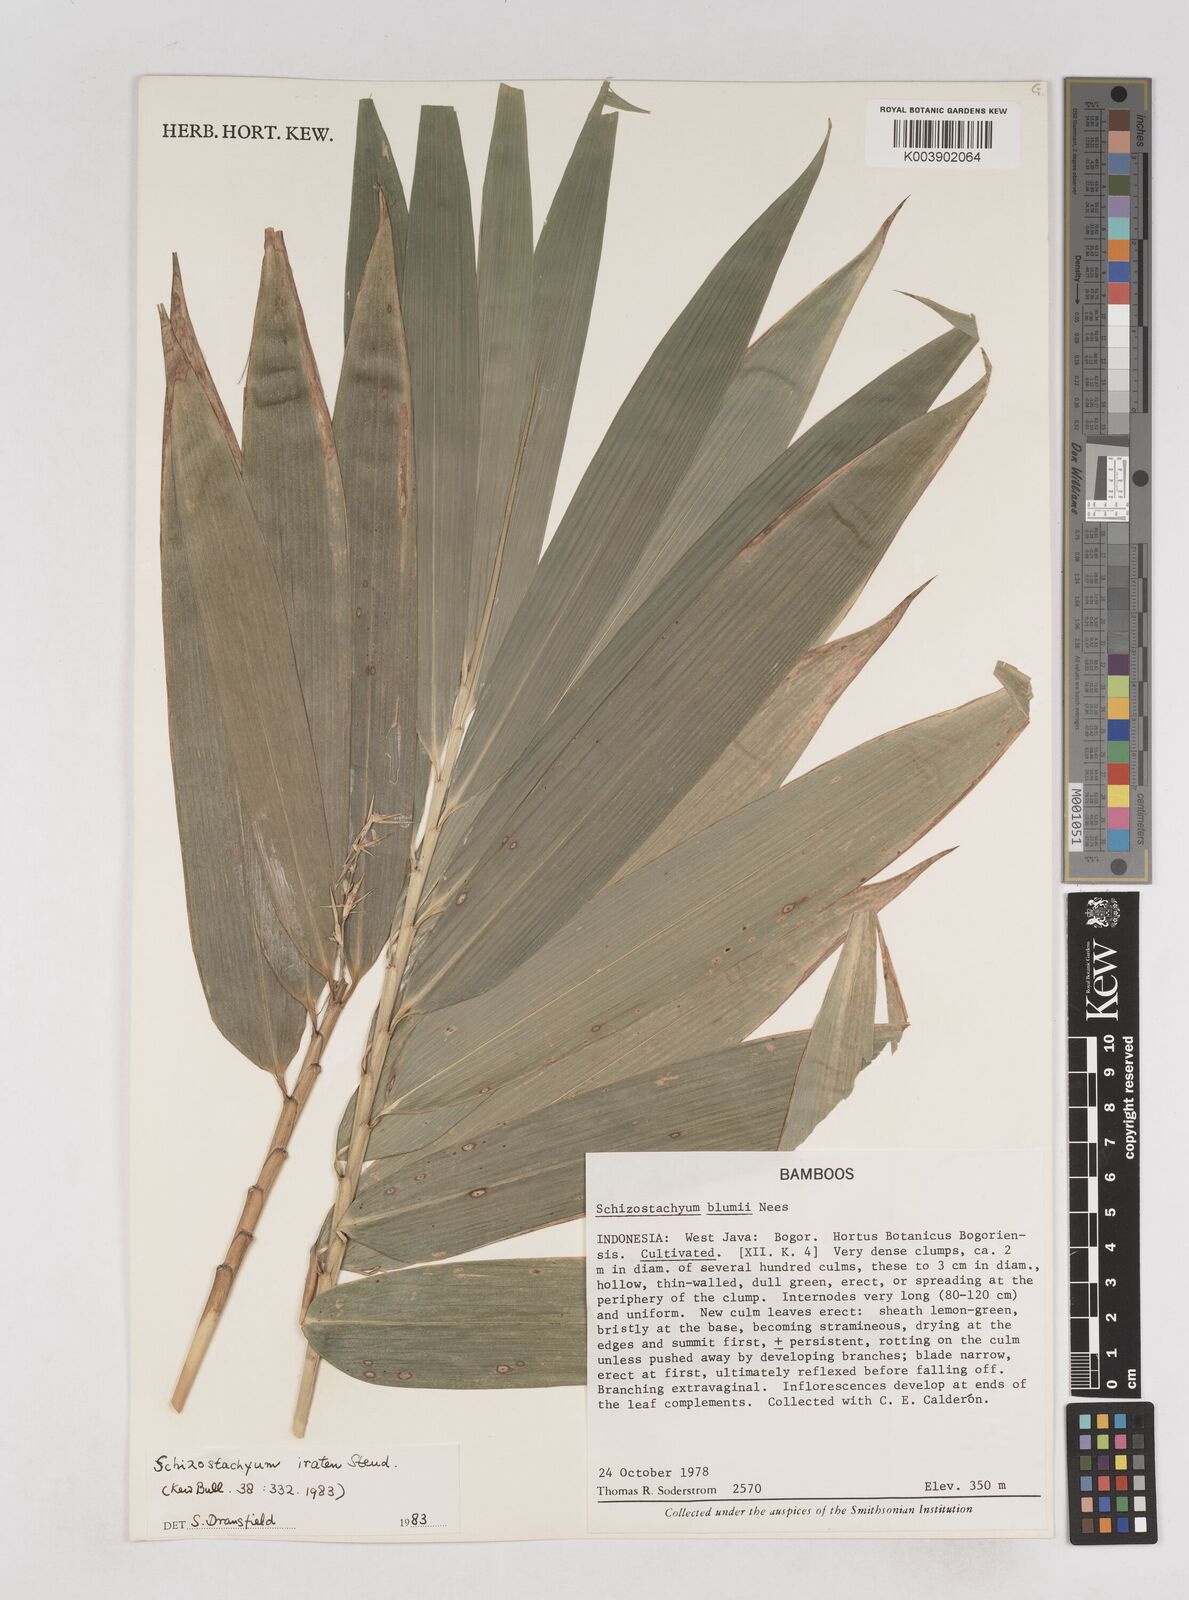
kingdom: Plantae
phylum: Tracheophyta
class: Liliopsida
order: Poales
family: Poaceae
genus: Schizostachyum
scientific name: Schizostachyum iraten
